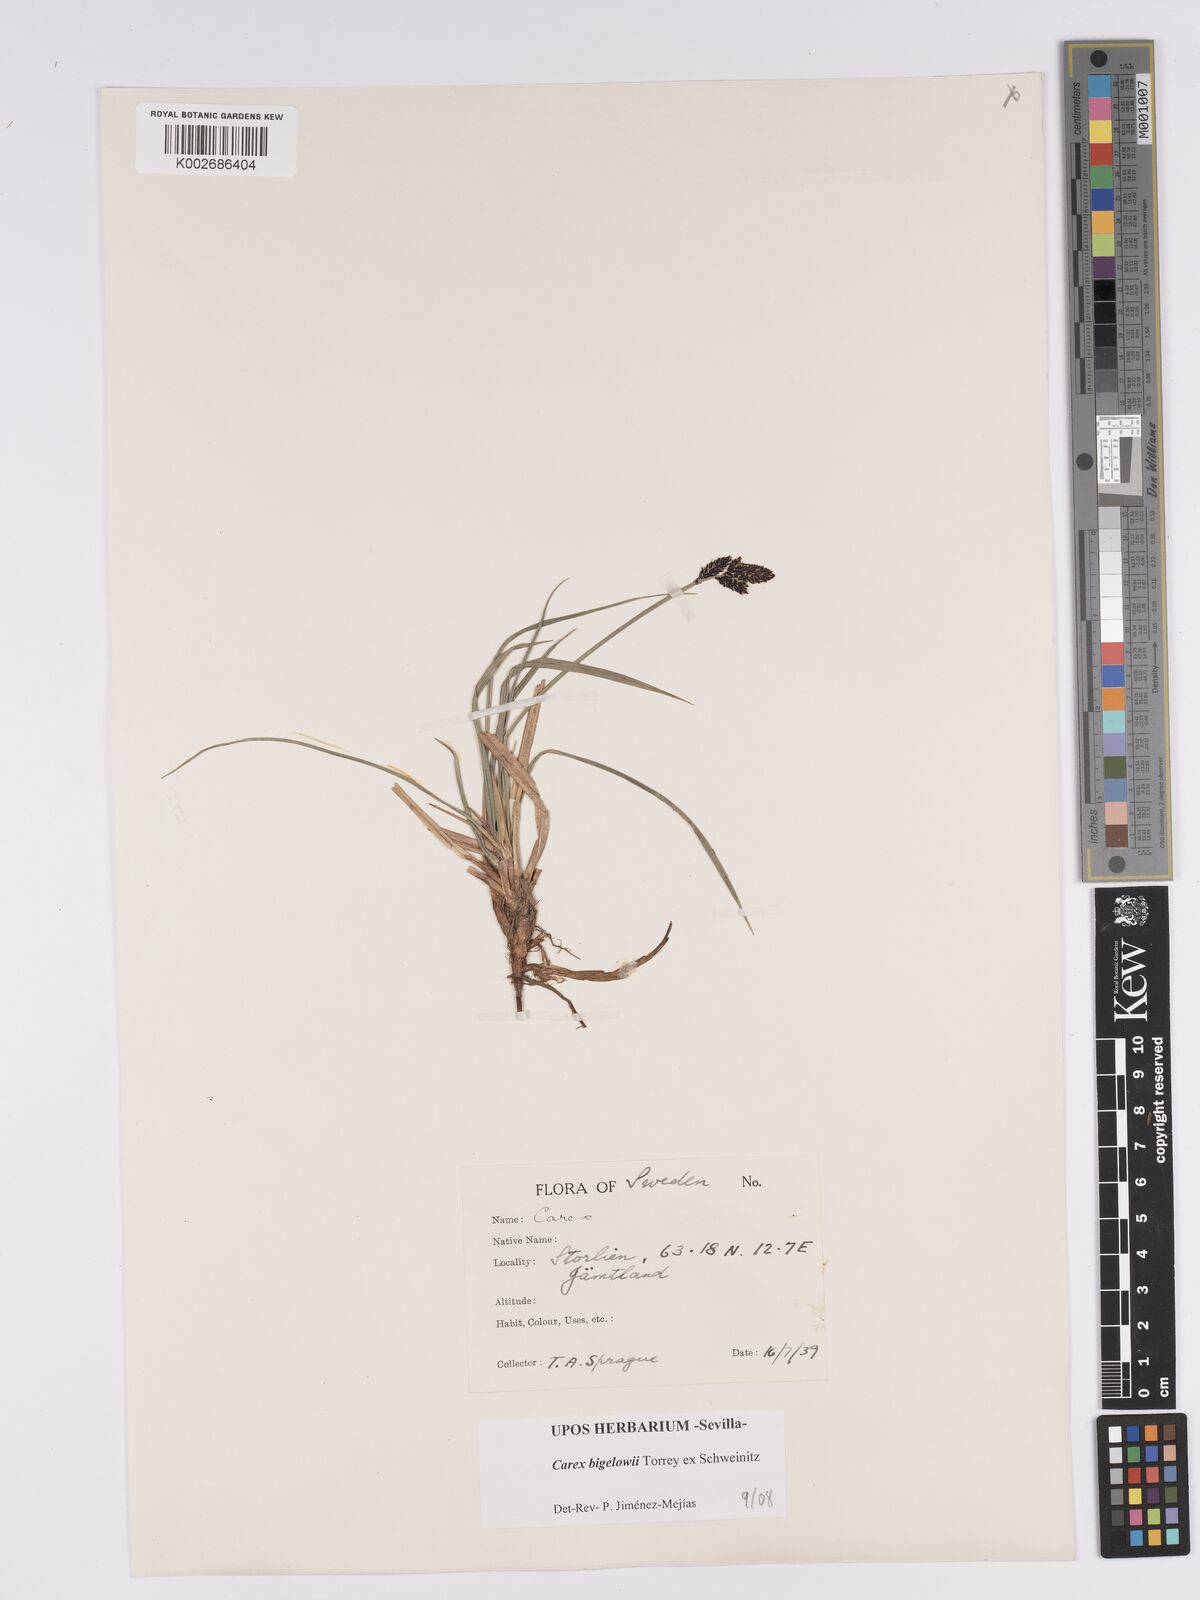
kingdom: Plantae
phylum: Tracheophyta
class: Liliopsida
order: Poales
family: Cyperaceae
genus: Carex
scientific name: Carex bigelowii
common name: Stiff sedge
